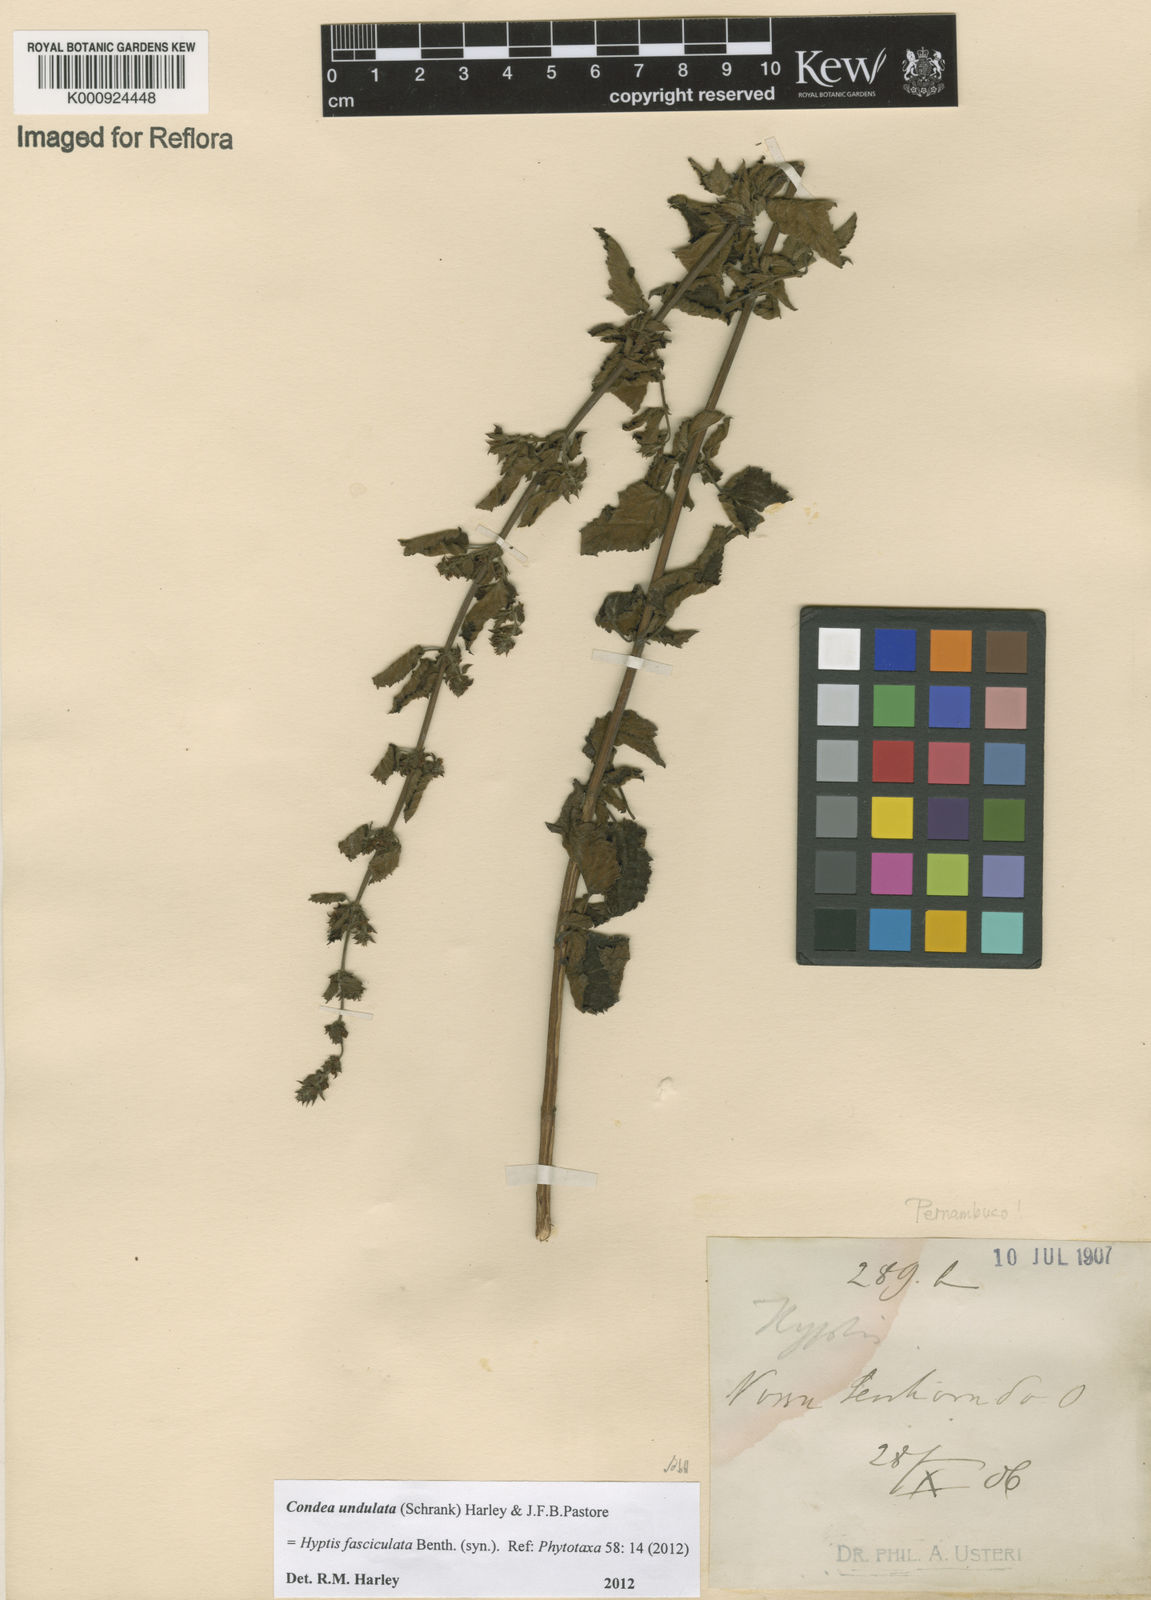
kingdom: Plantae
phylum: Tracheophyta
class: Magnoliopsida
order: Lamiales
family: Lamiaceae
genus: Condea
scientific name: Condea undulata
